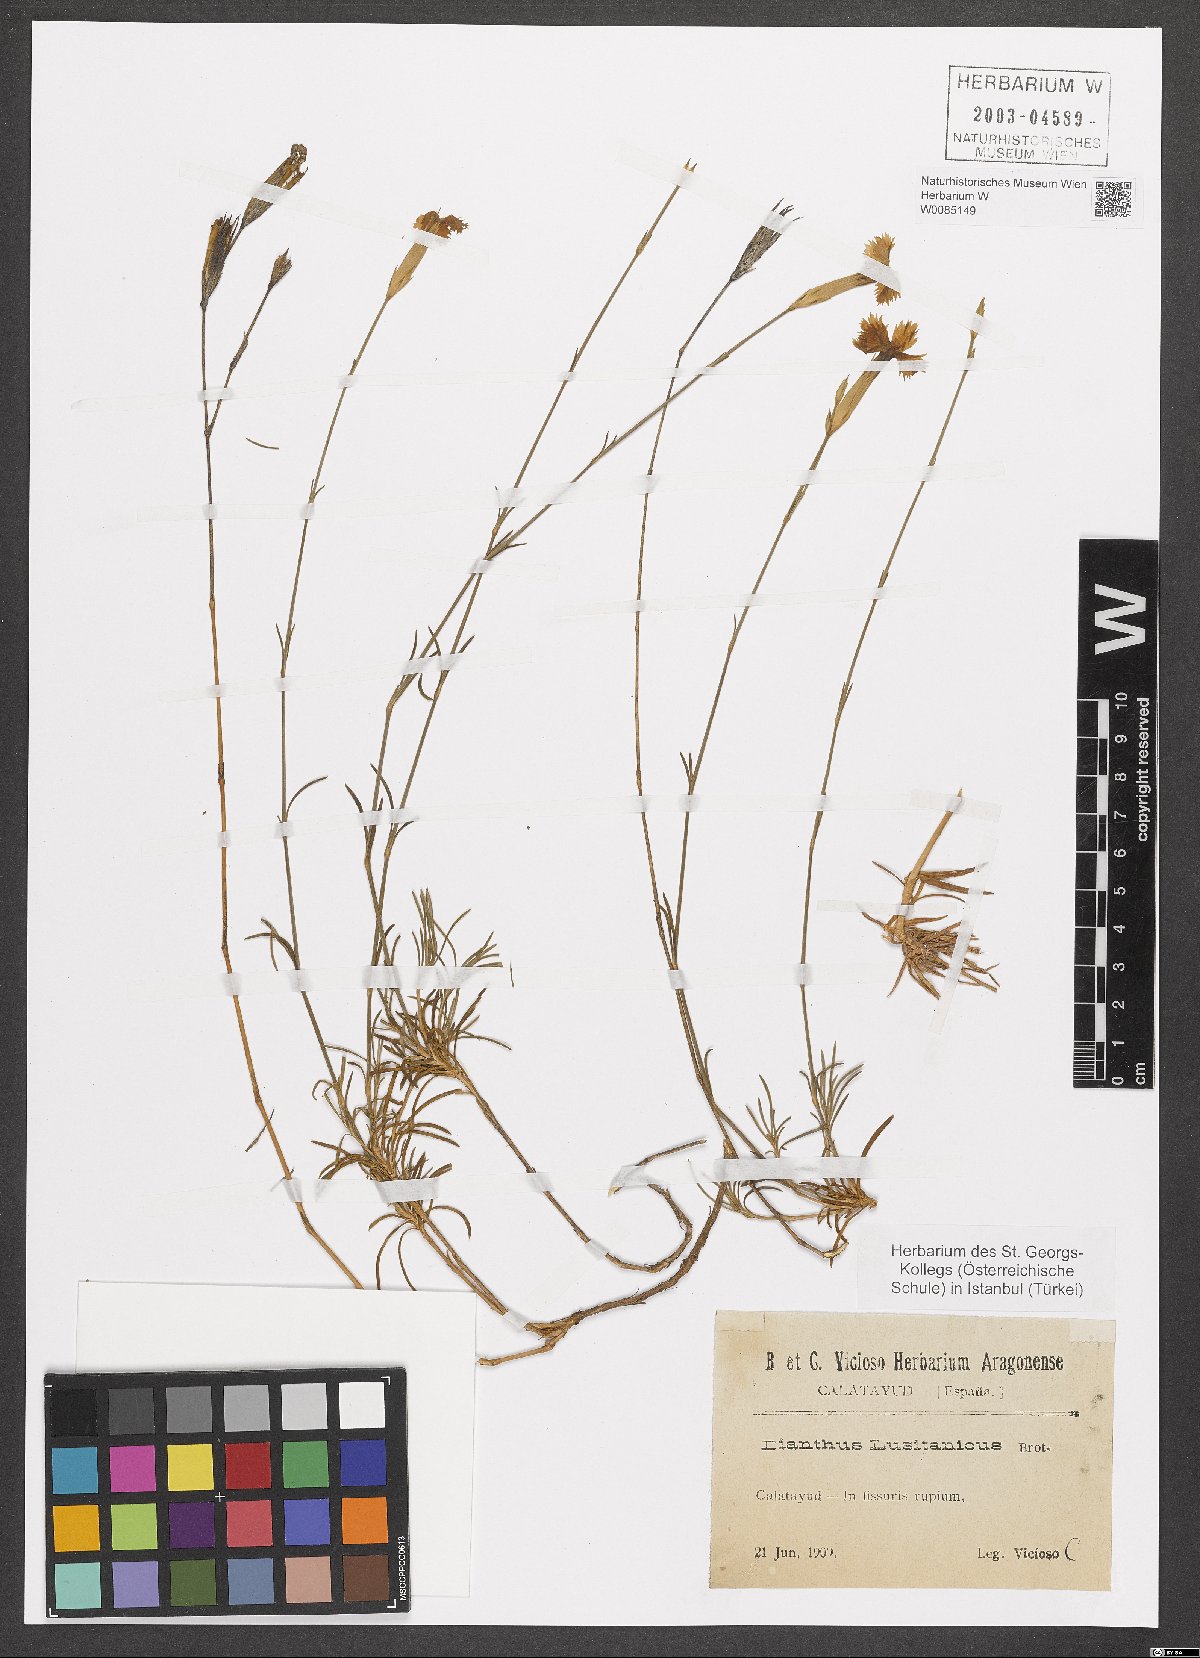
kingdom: Plantae
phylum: Tracheophyta
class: Magnoliopsida
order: Caryophyllales
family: Caryophyllaceae
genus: Dianthus
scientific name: Dianthus lusitanus
